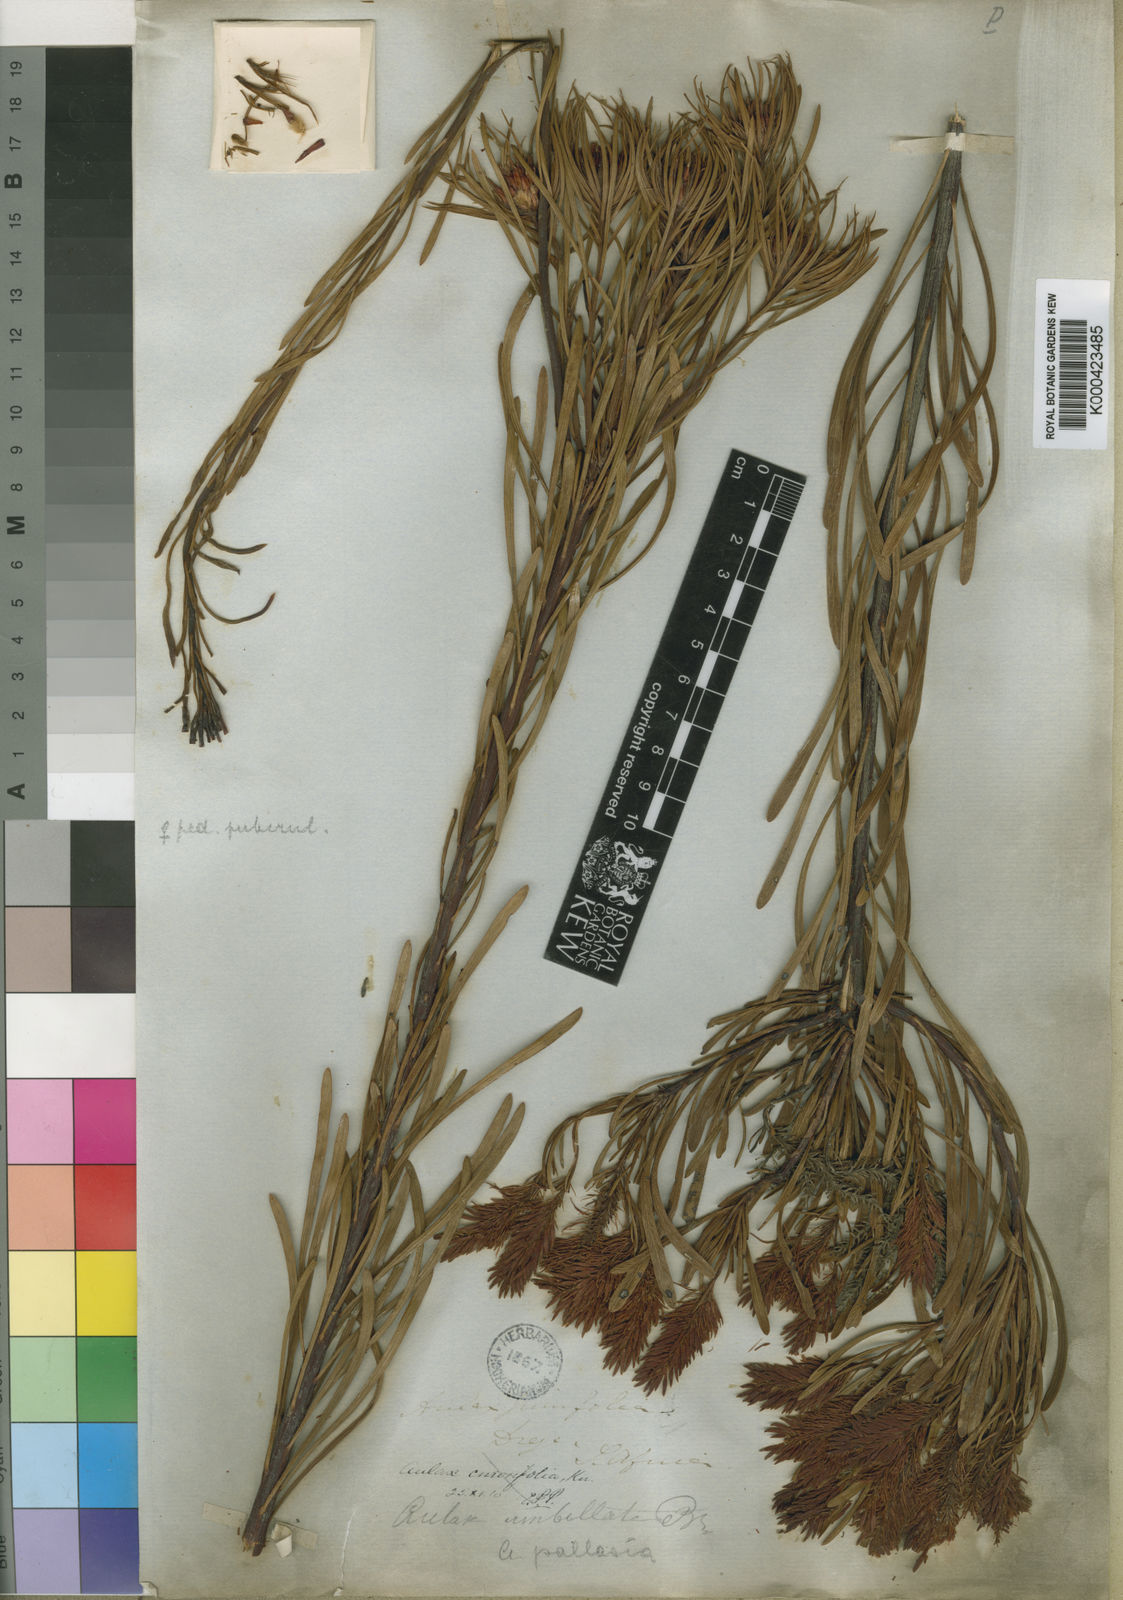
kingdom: Plantae
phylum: Tracheophyta
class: Magnoliopsida
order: Proteales
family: Proteaceae
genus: Aulax
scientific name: Aulax pallasia
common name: Needle-leaf featherbush
